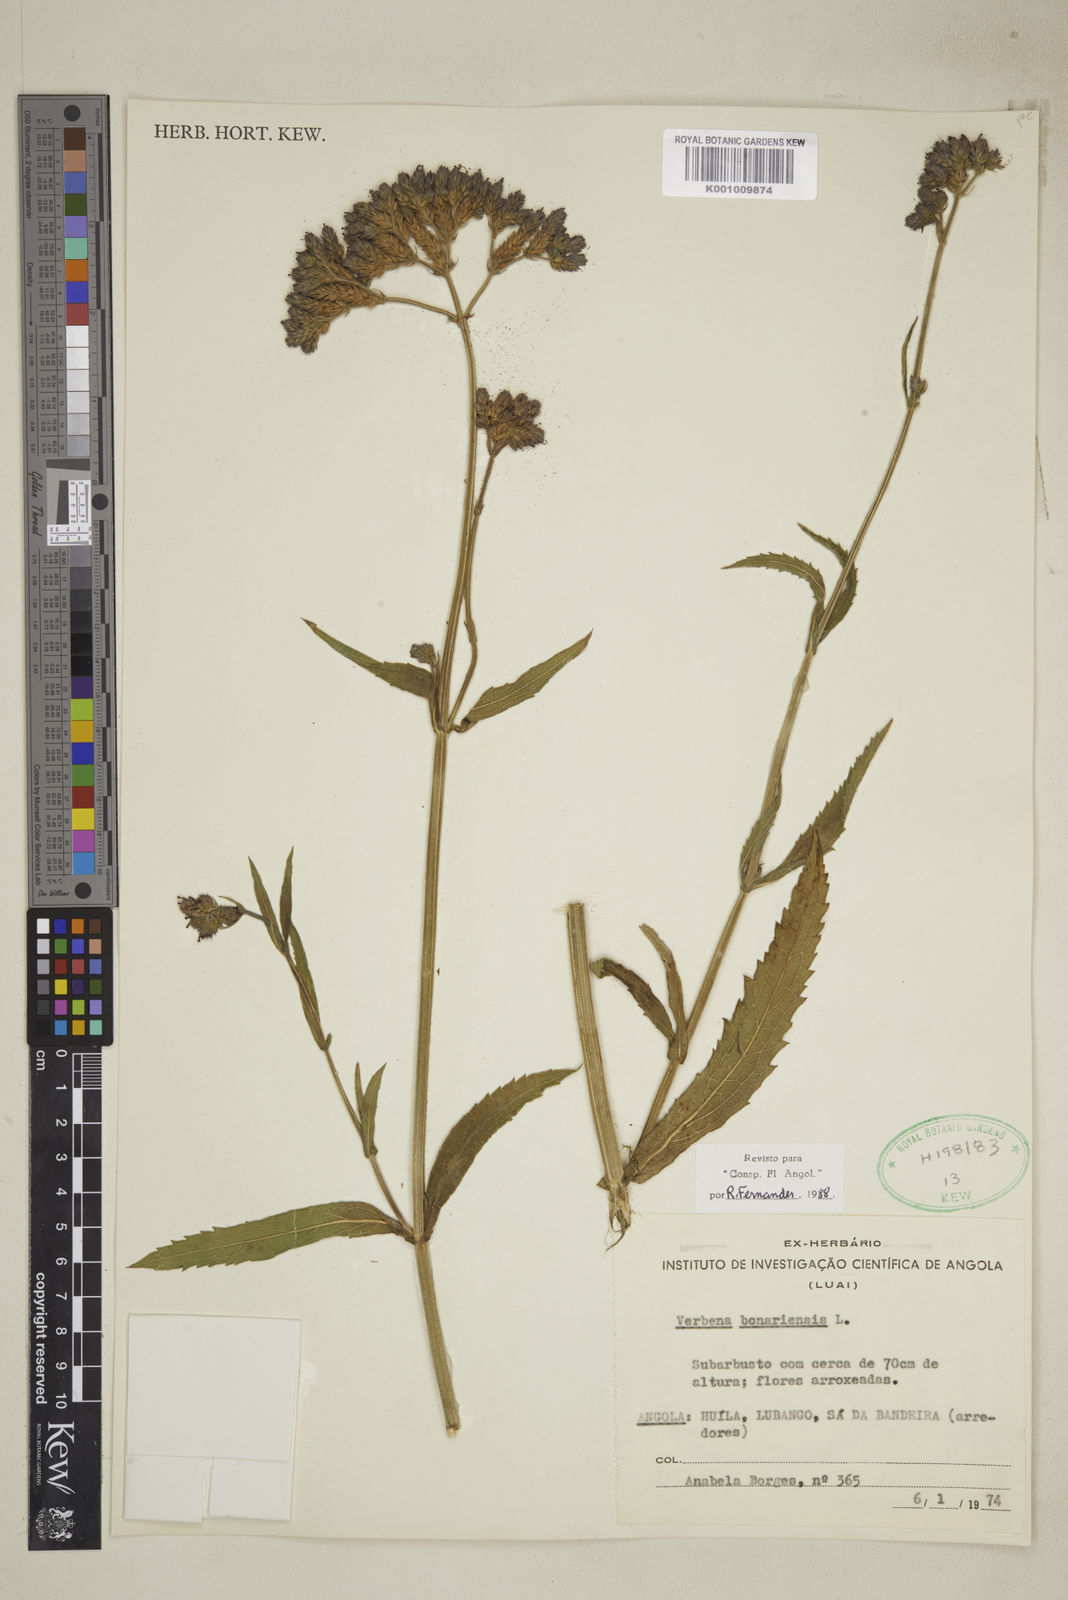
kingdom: Plantae
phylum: Tracheophyta
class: Magnoliopsida
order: Lamiales
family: Verbenaceae
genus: Lantana
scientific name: Lantana
